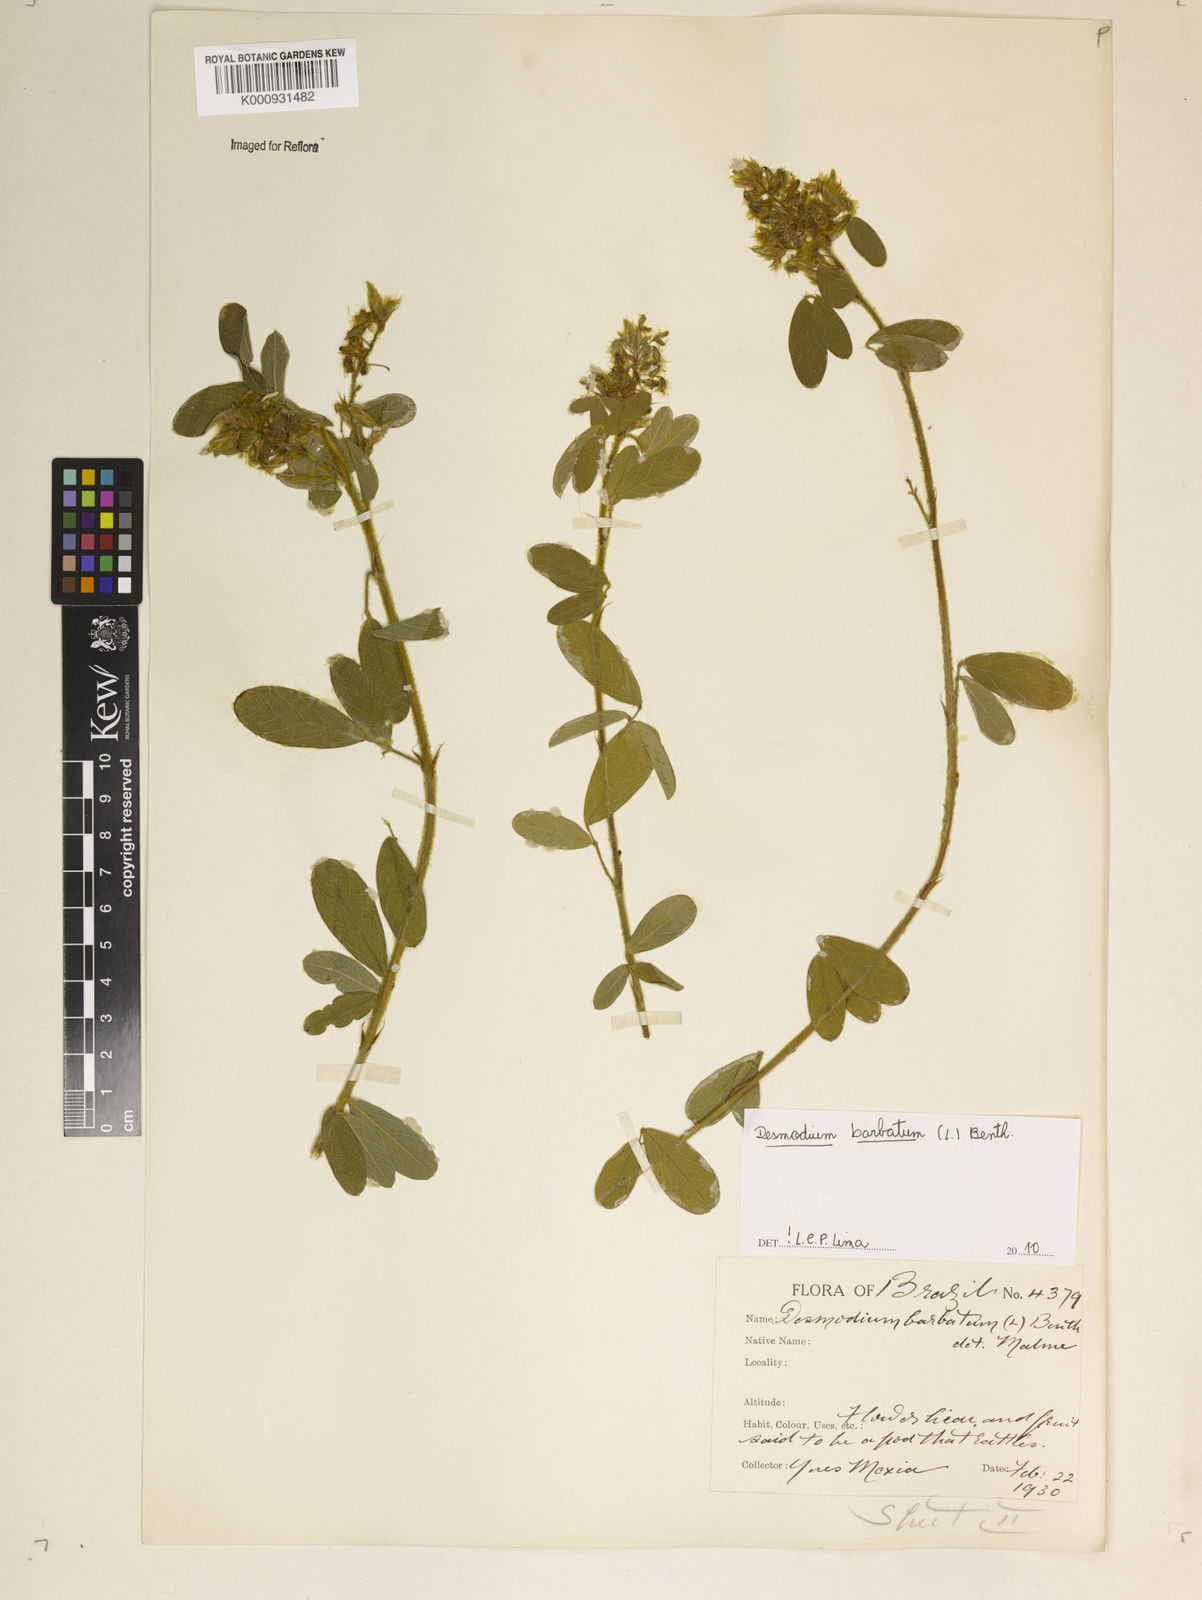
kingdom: Plantae
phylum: Tracheophyta
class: Magnoliopsida
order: Fabales
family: Fabaceae
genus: Grona
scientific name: Grona barbata
